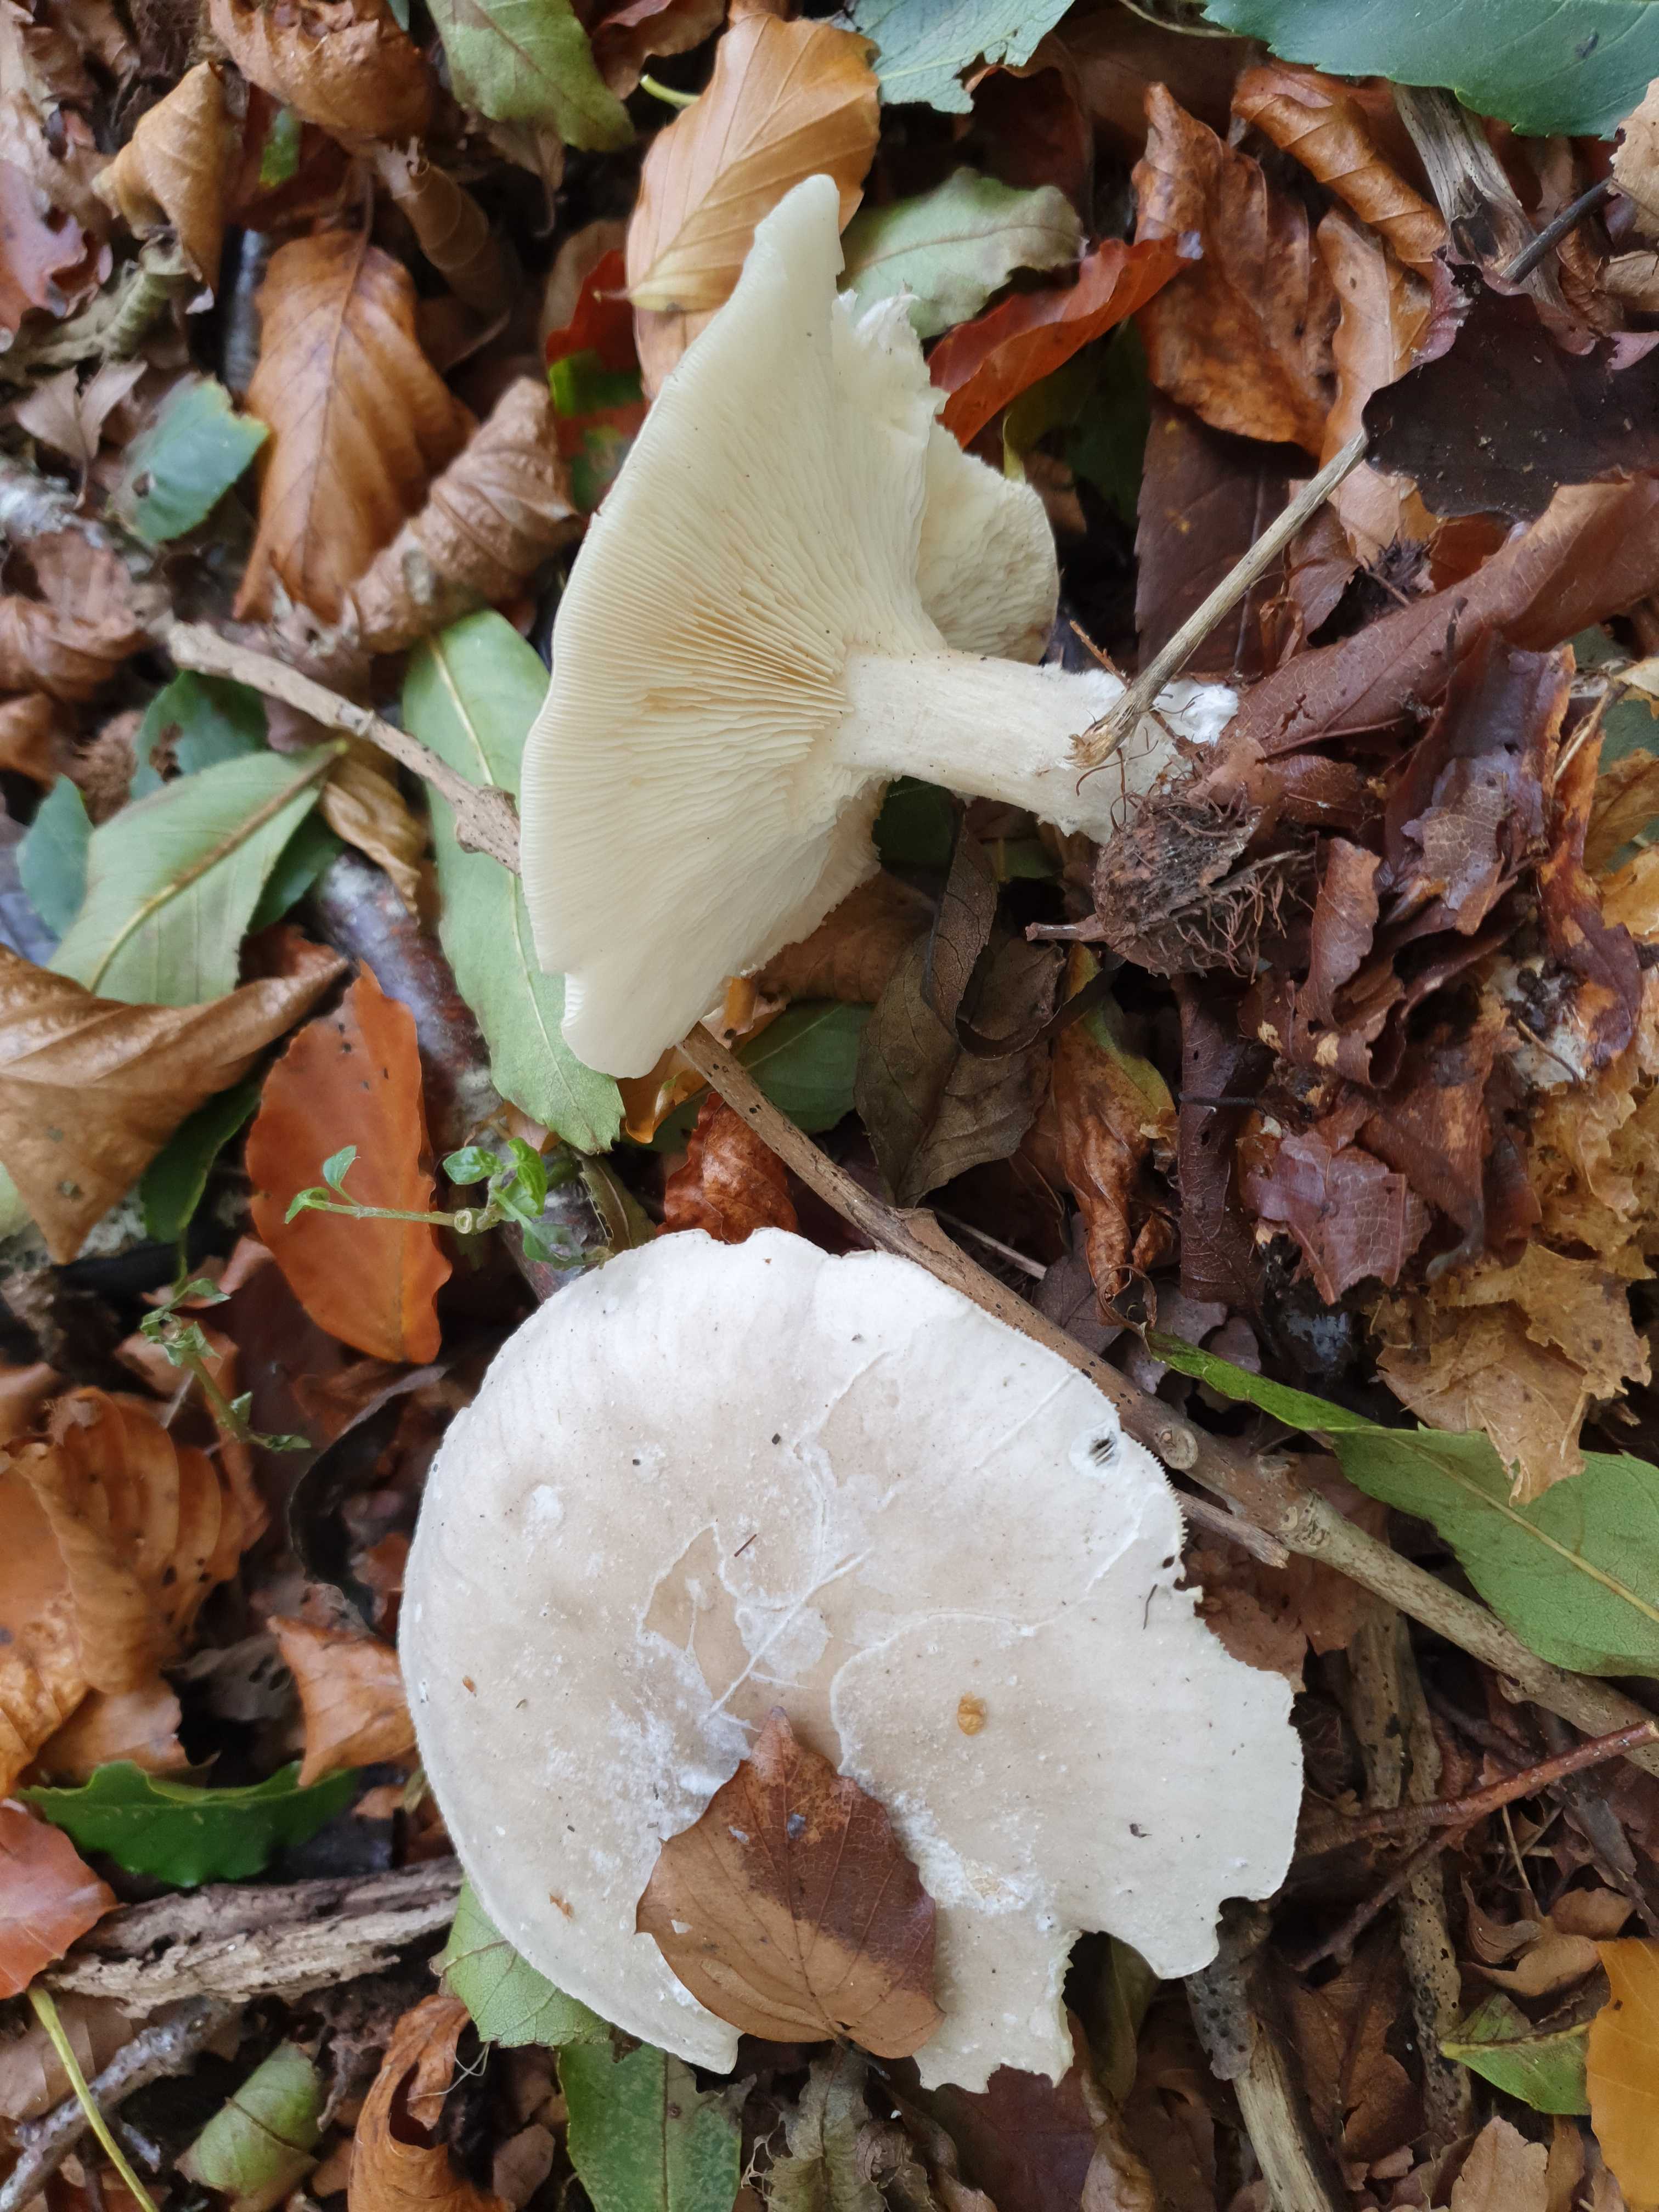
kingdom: Fungi
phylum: Basidiomycota
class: Agaricomycetes
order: Agaricales
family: Tricholomataceae
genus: Clitocybe
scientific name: Clitocybe nebularis
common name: tåge-tragthat
